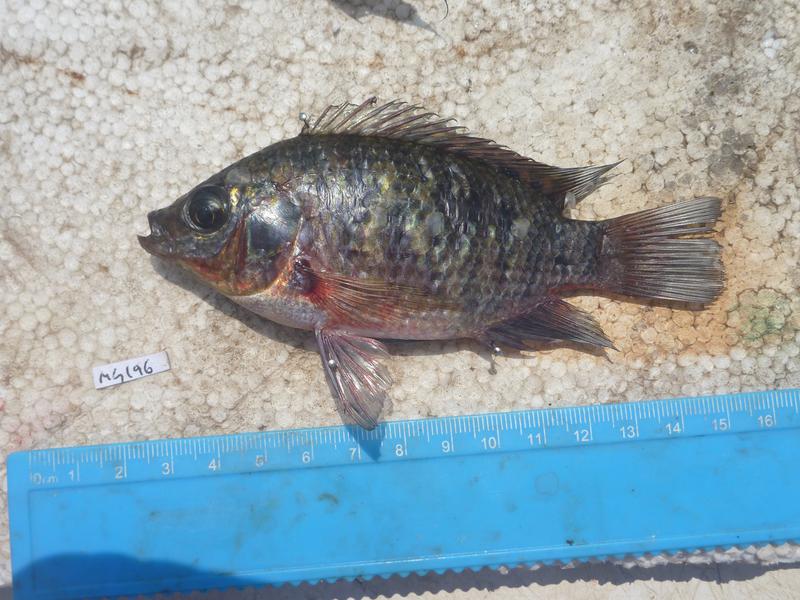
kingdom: Animalia
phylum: Chordata
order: Perciformes
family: Cichlidae
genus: Oreochromis
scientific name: Oreochromis leucostictus
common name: Blue spotted tilapia
